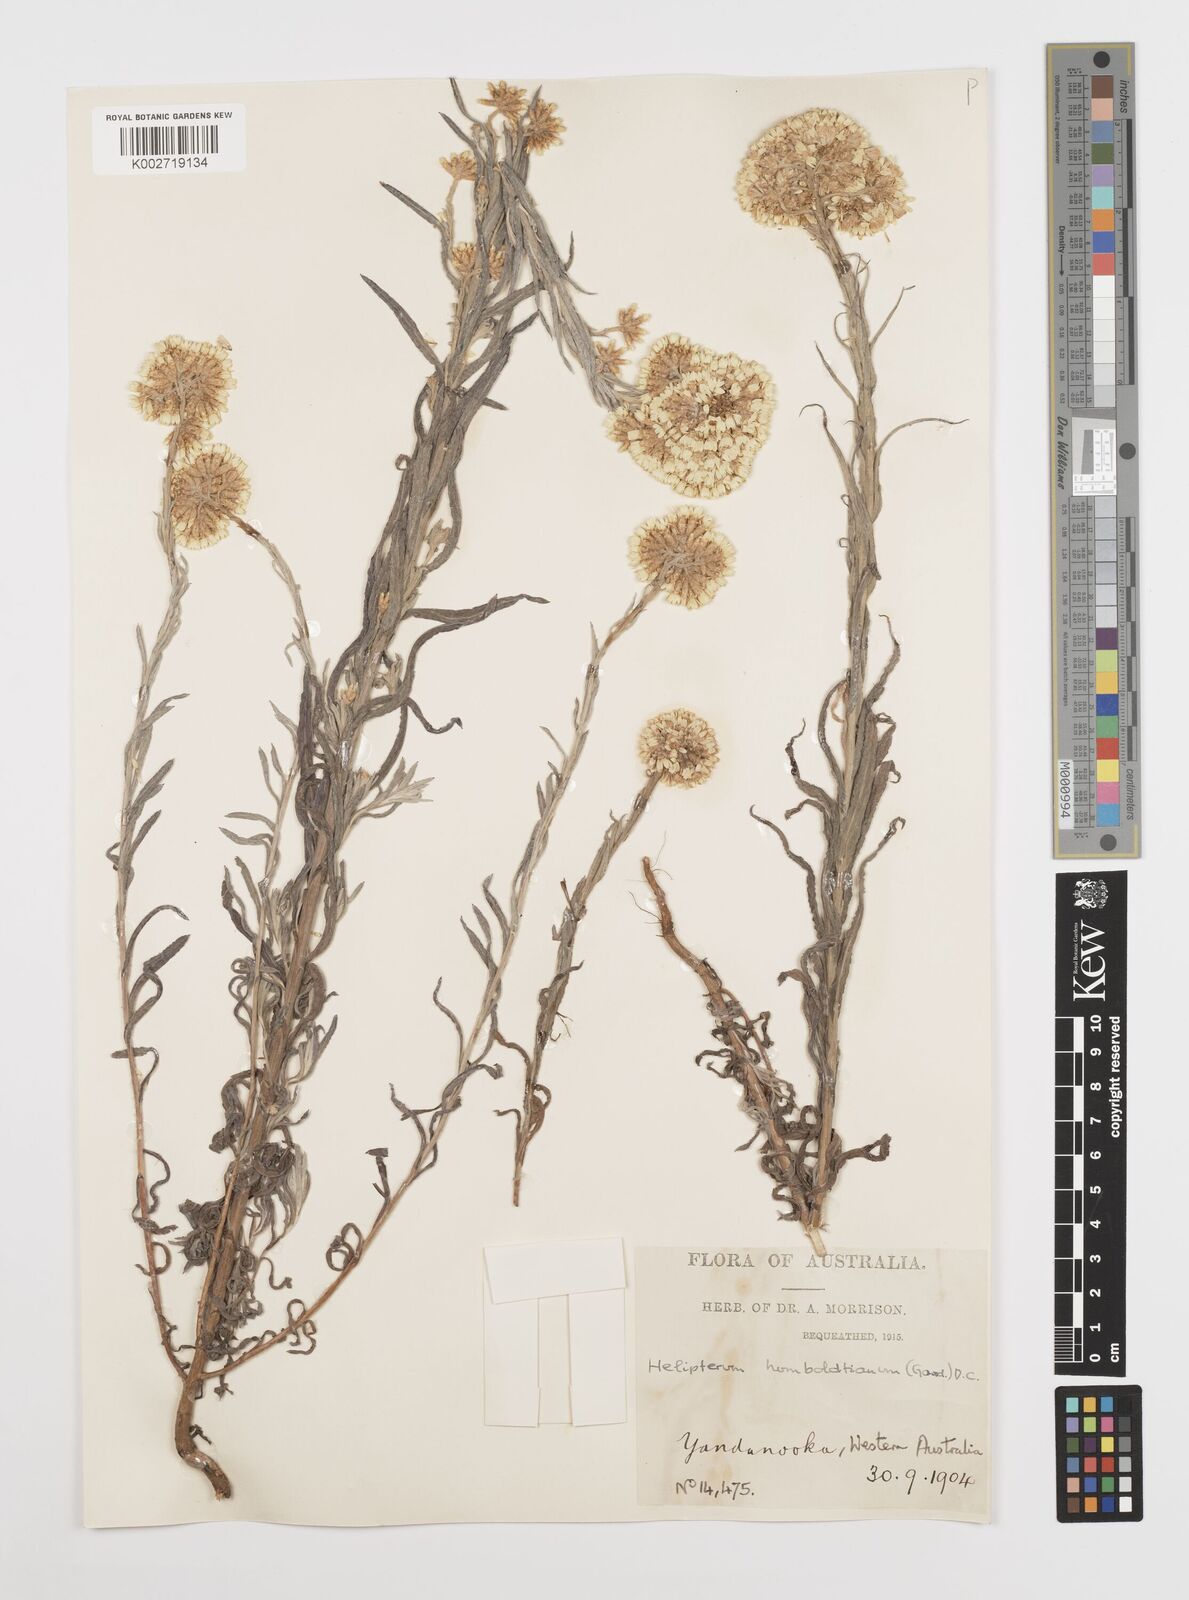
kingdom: Plantae
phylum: Tracheophyta
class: Magnoliopsida
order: Asterales
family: Asteraceae
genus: Rhodanthe
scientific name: Rhodanthe humboldtiana
